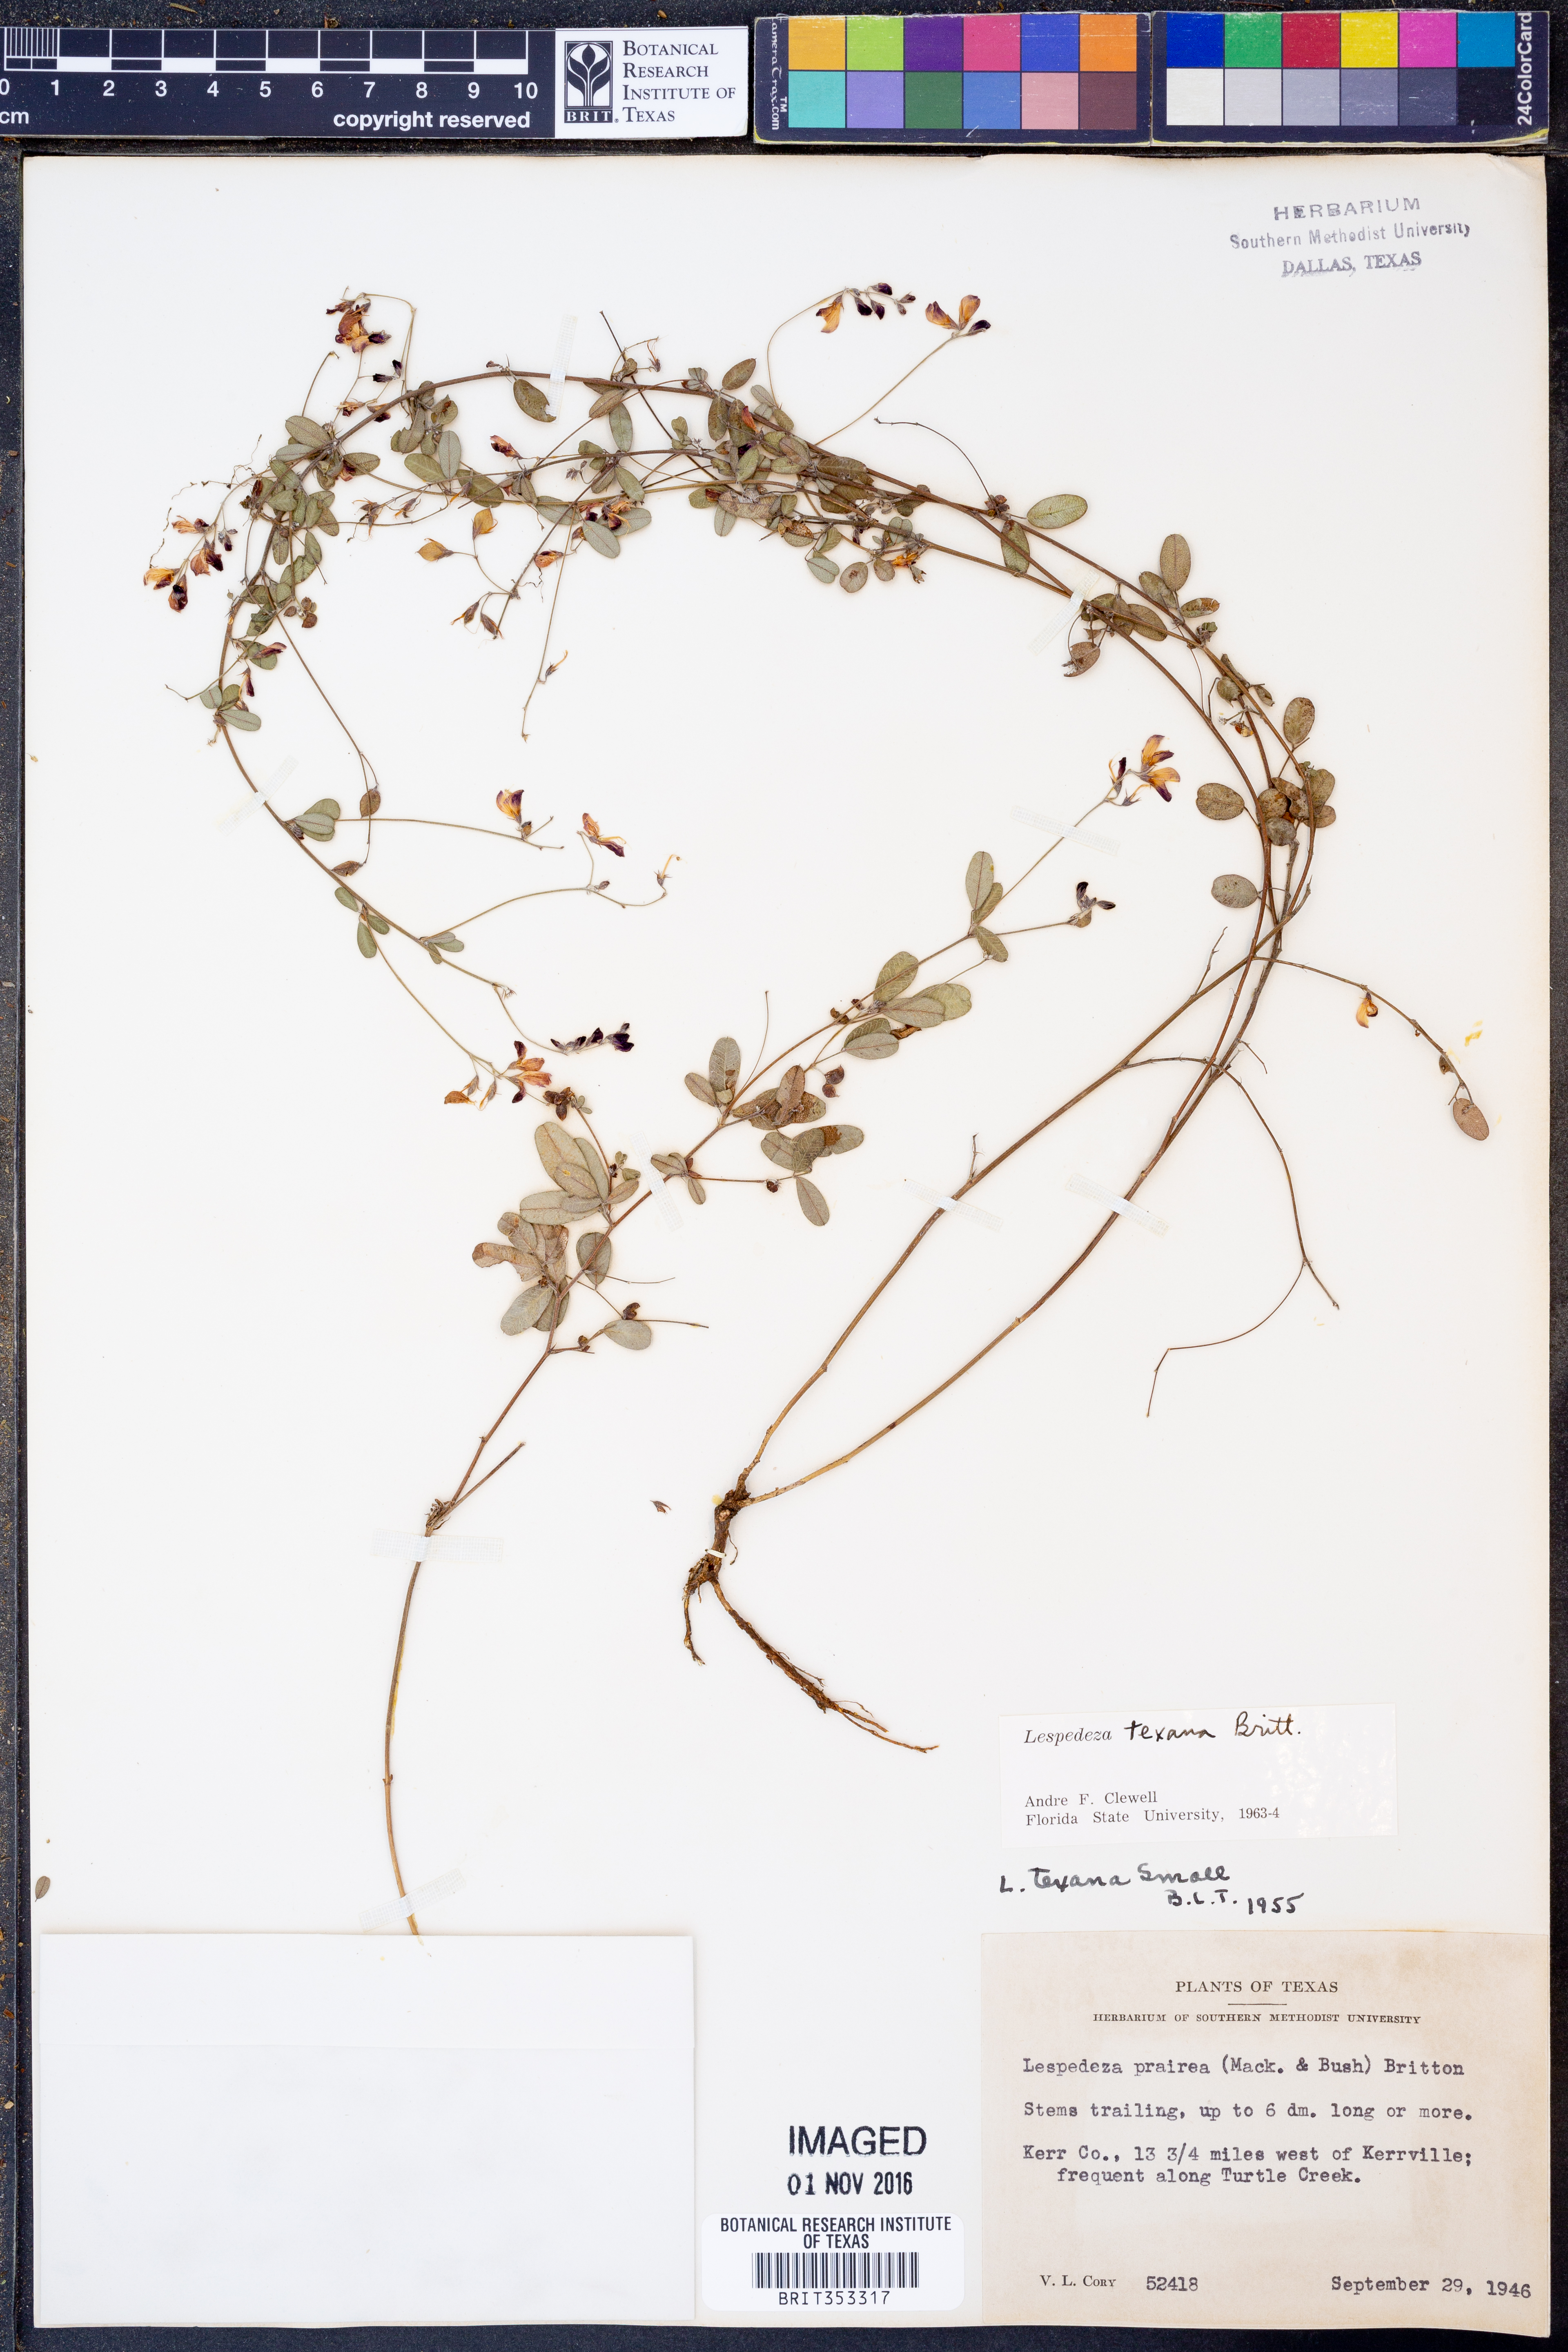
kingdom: Plantae
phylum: Tracheophyta
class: Magnoliopsida
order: Fabales
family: Fabaceae
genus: Lespedeza
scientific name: Lespedeza texana
